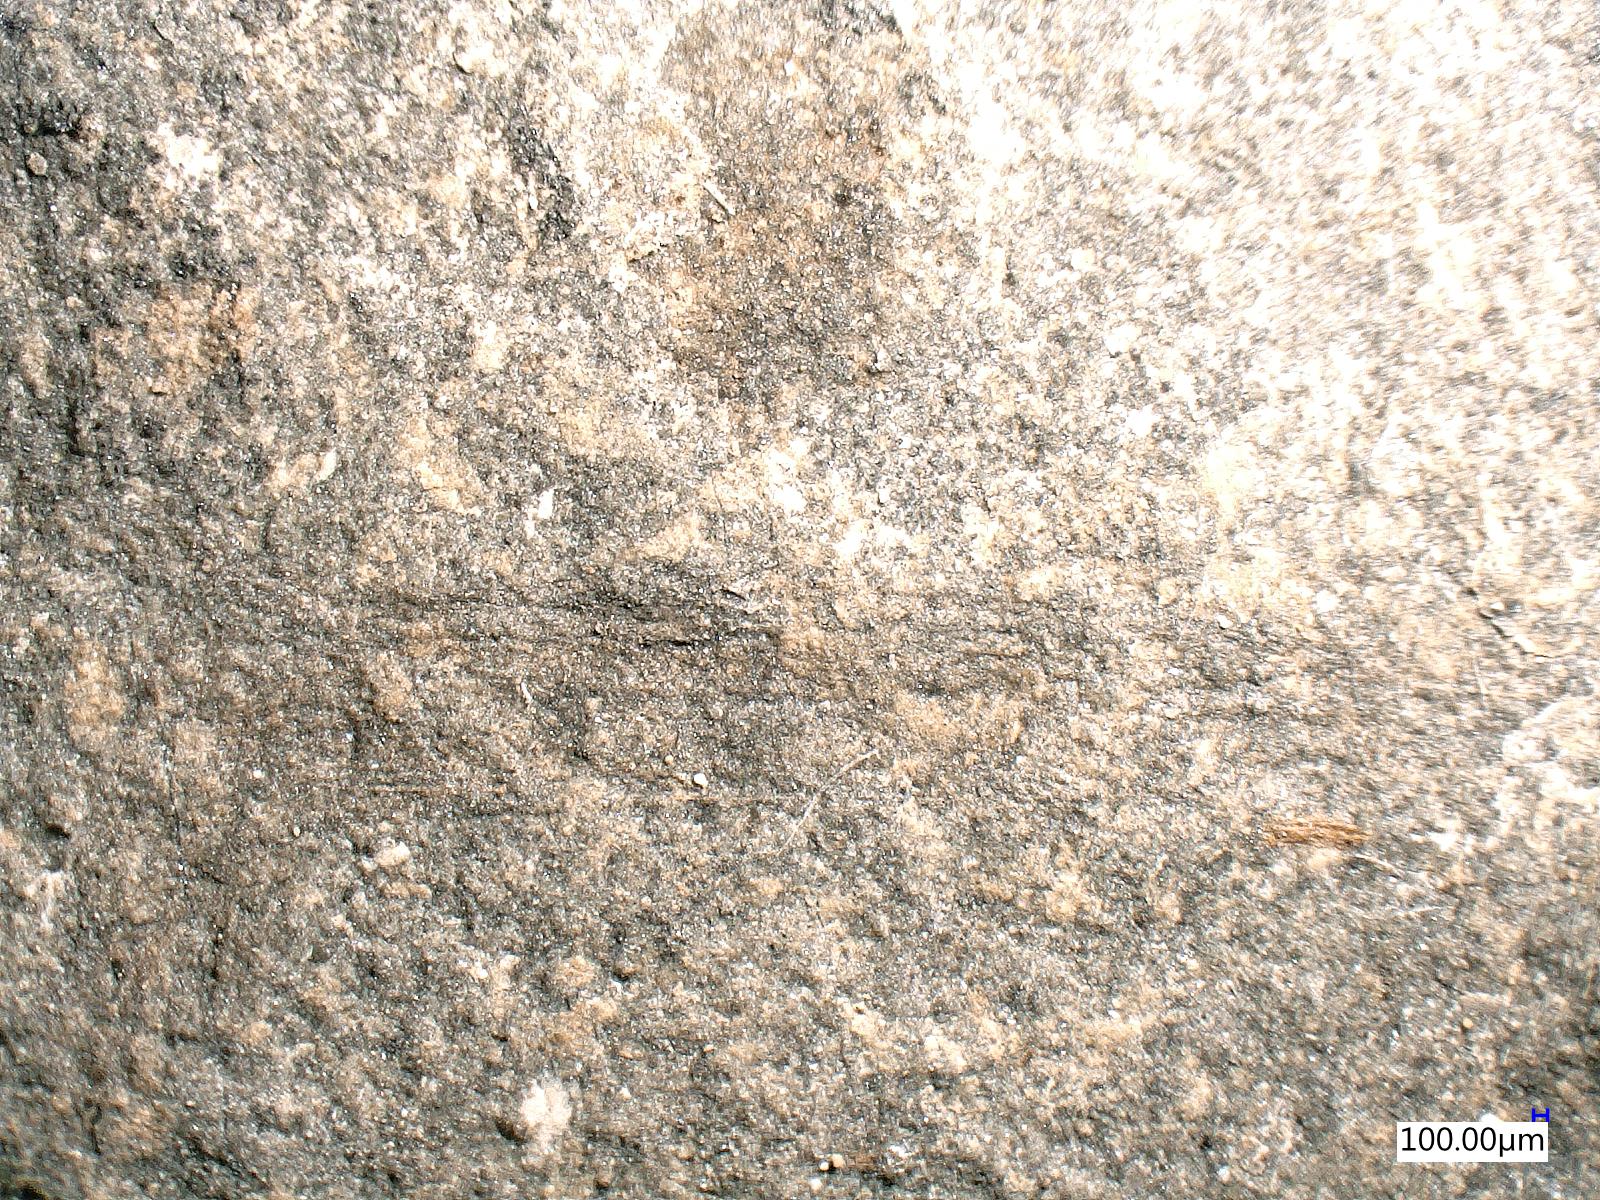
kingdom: Animalia
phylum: Arthropoda
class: Insecta
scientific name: Insecta
